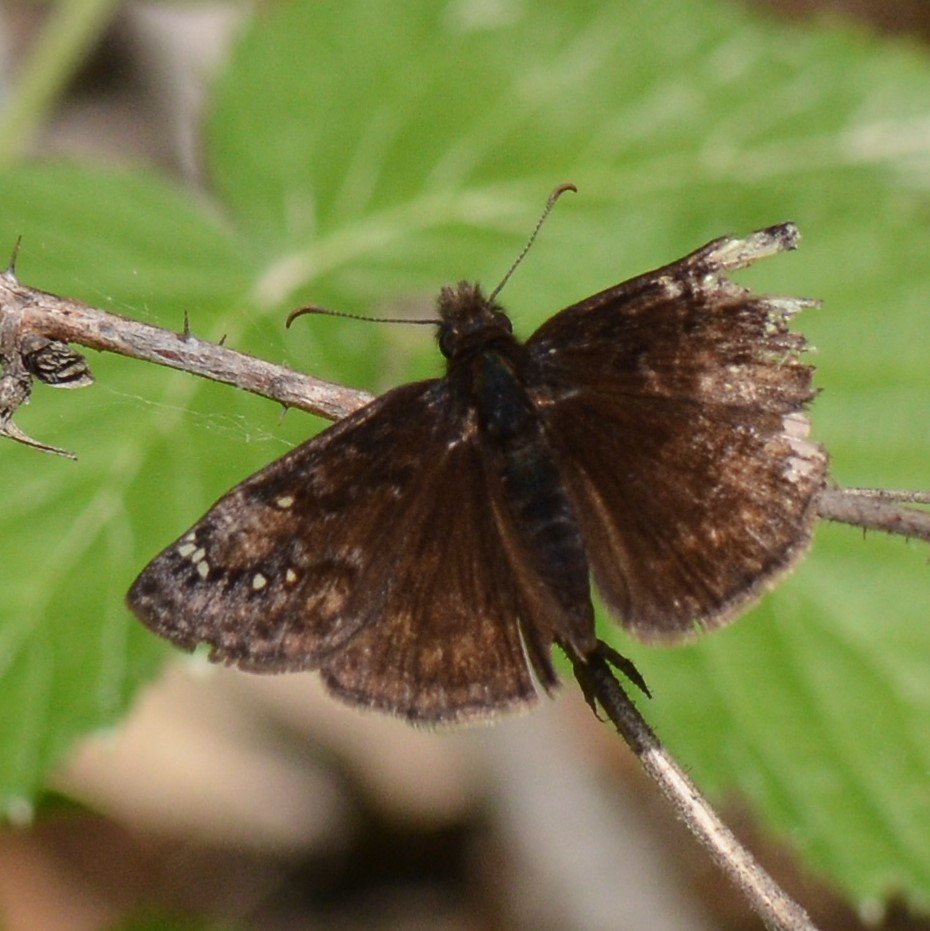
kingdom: Animalia
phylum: Arthropoda
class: Insecta
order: Lepidoptera
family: Hesperiidae
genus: Gesta
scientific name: Gesta
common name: Columbine Duskywing
